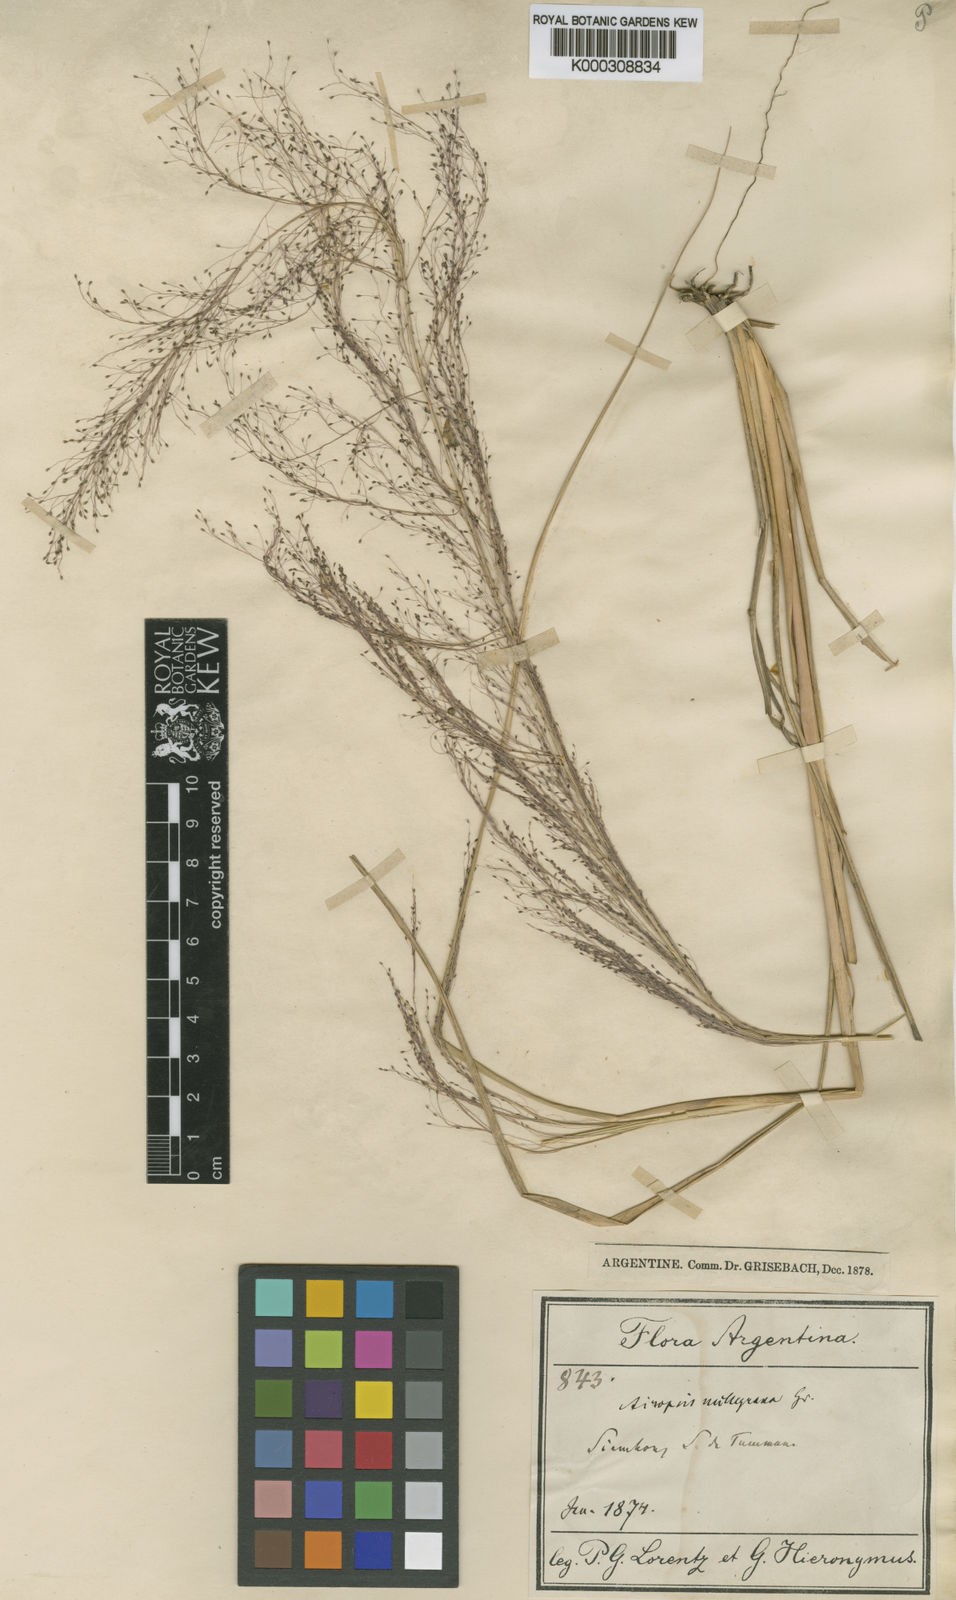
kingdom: Plantae
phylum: Tracheophyta
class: Liliopsida
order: Poales
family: Poaceae
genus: Eragrostis
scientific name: Eragrostis airoides
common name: Darnel lovegrass
